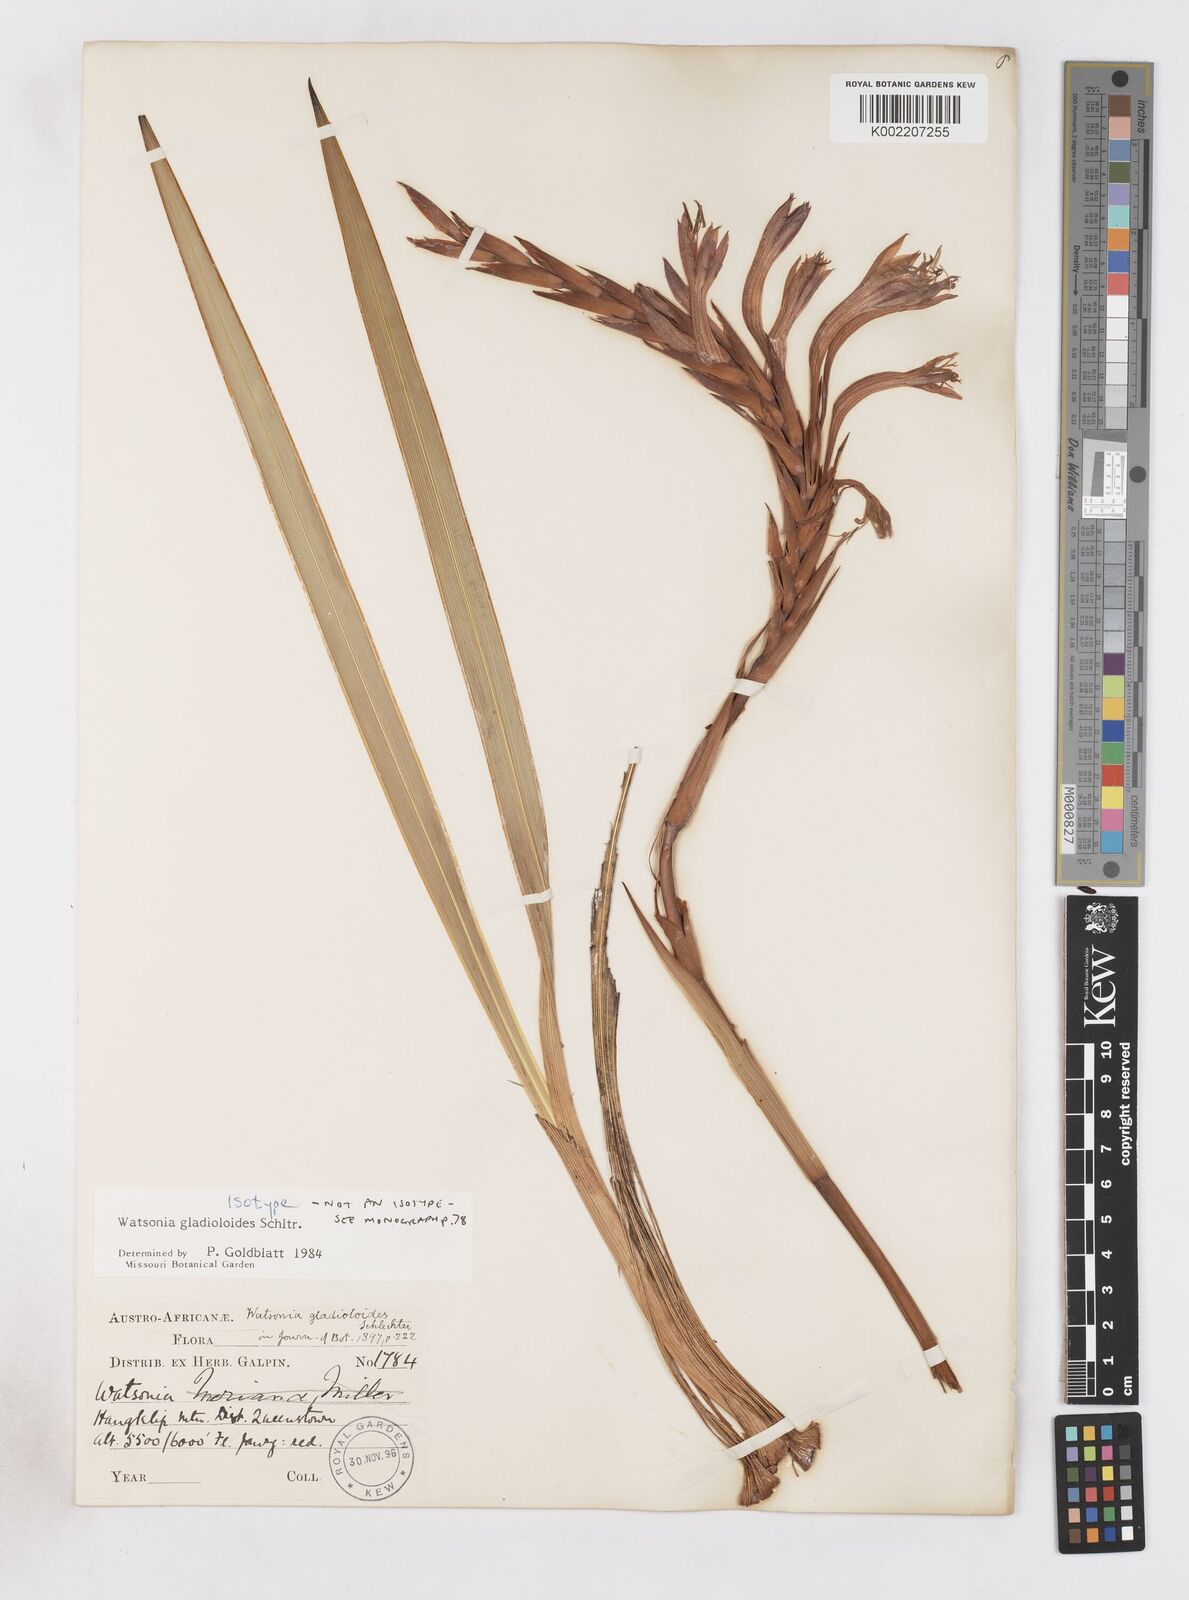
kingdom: Plantae
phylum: Tracheophyta
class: Liliopsida
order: Asparagales
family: Iridaceae
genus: Watsonia
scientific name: Watsonia gladioloides
